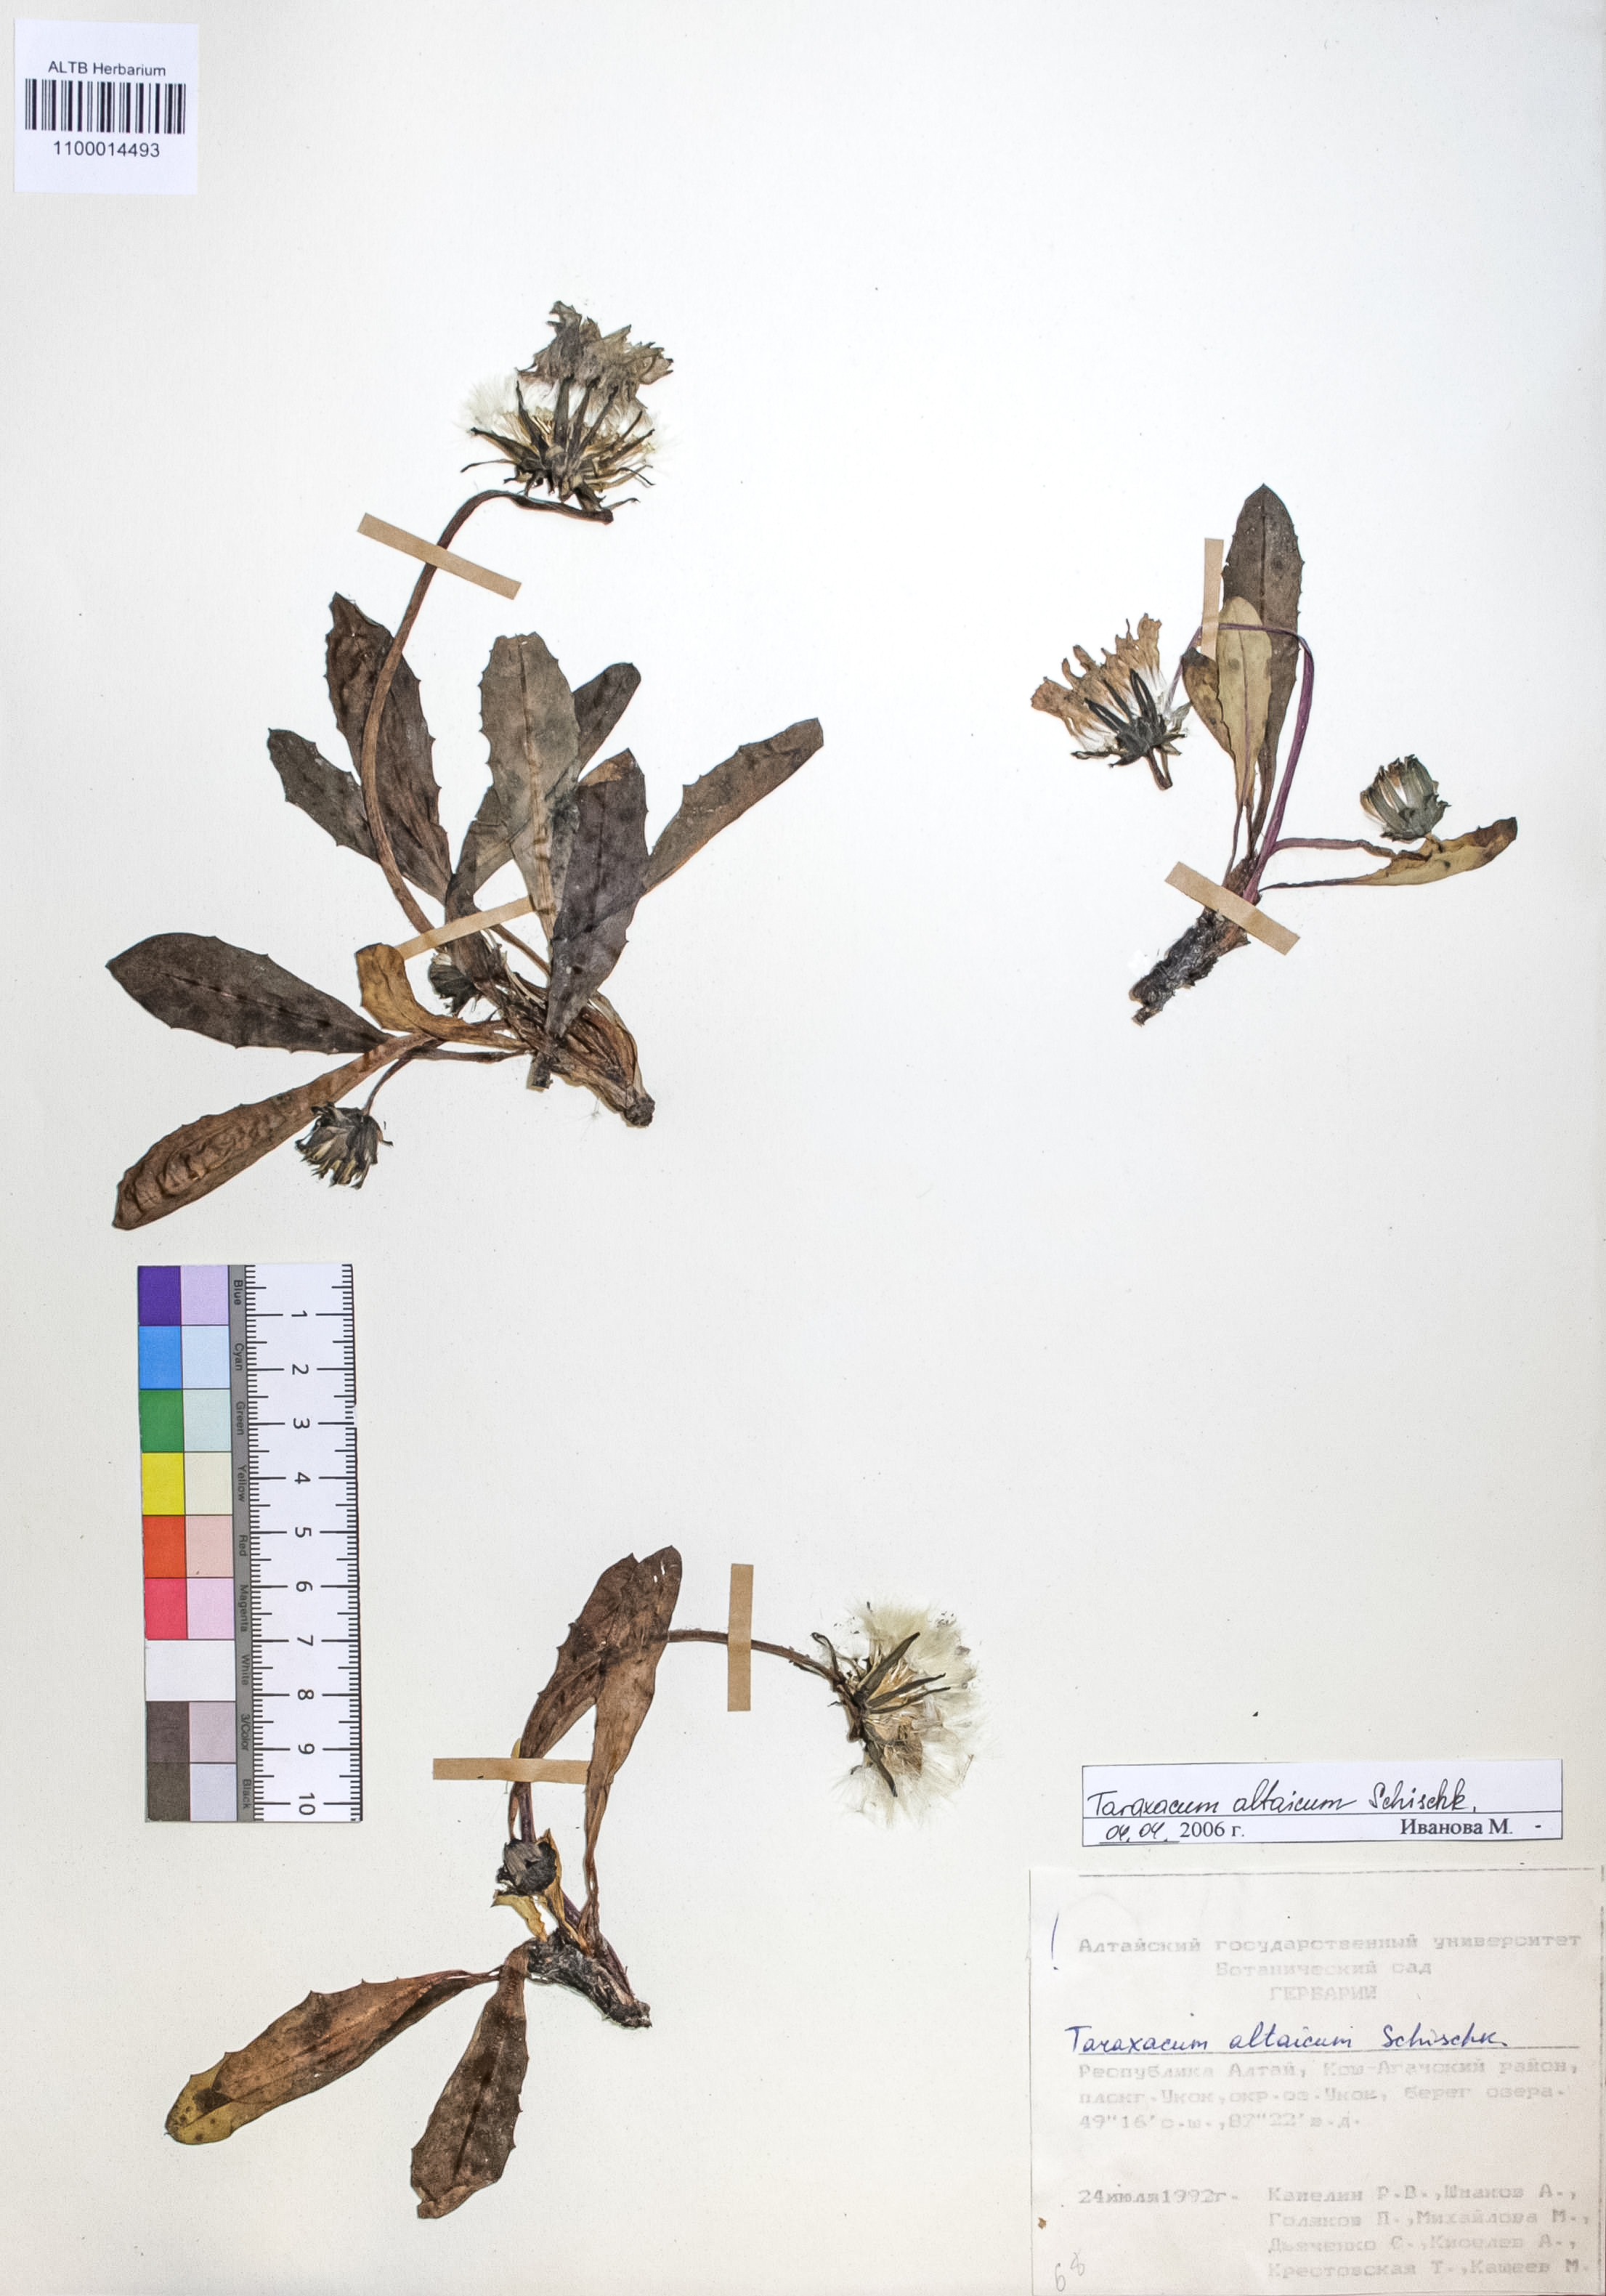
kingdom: Plantae
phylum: Tracheophyta
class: Magnoliopsida
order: Asterales
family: Asteraceae
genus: Taraxacum
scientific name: Taraxacum ceratophorum
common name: Horn-bearing dandelion
